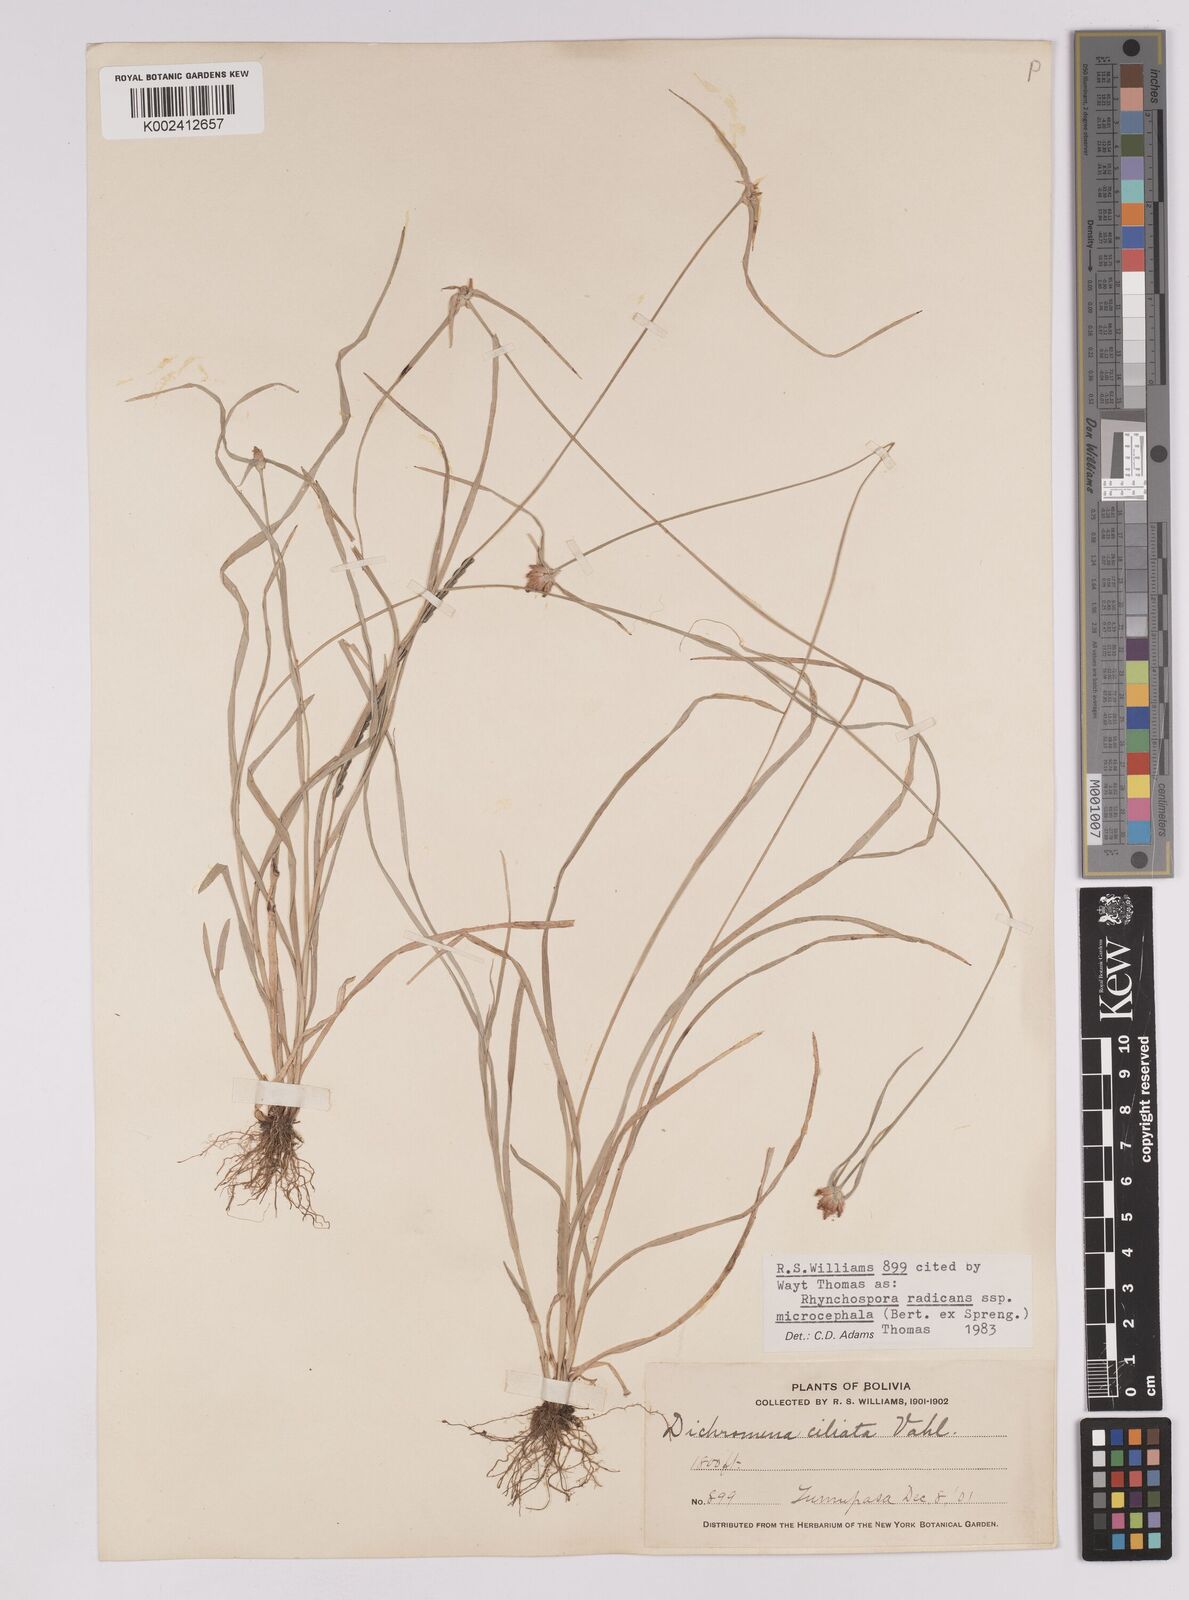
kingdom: Plantae
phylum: Tracheophyta
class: Liliopsida
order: Poales
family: Cyperaceae
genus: Rhynchospora
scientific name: Rhynchospora radicans
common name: Tropical whitetop
